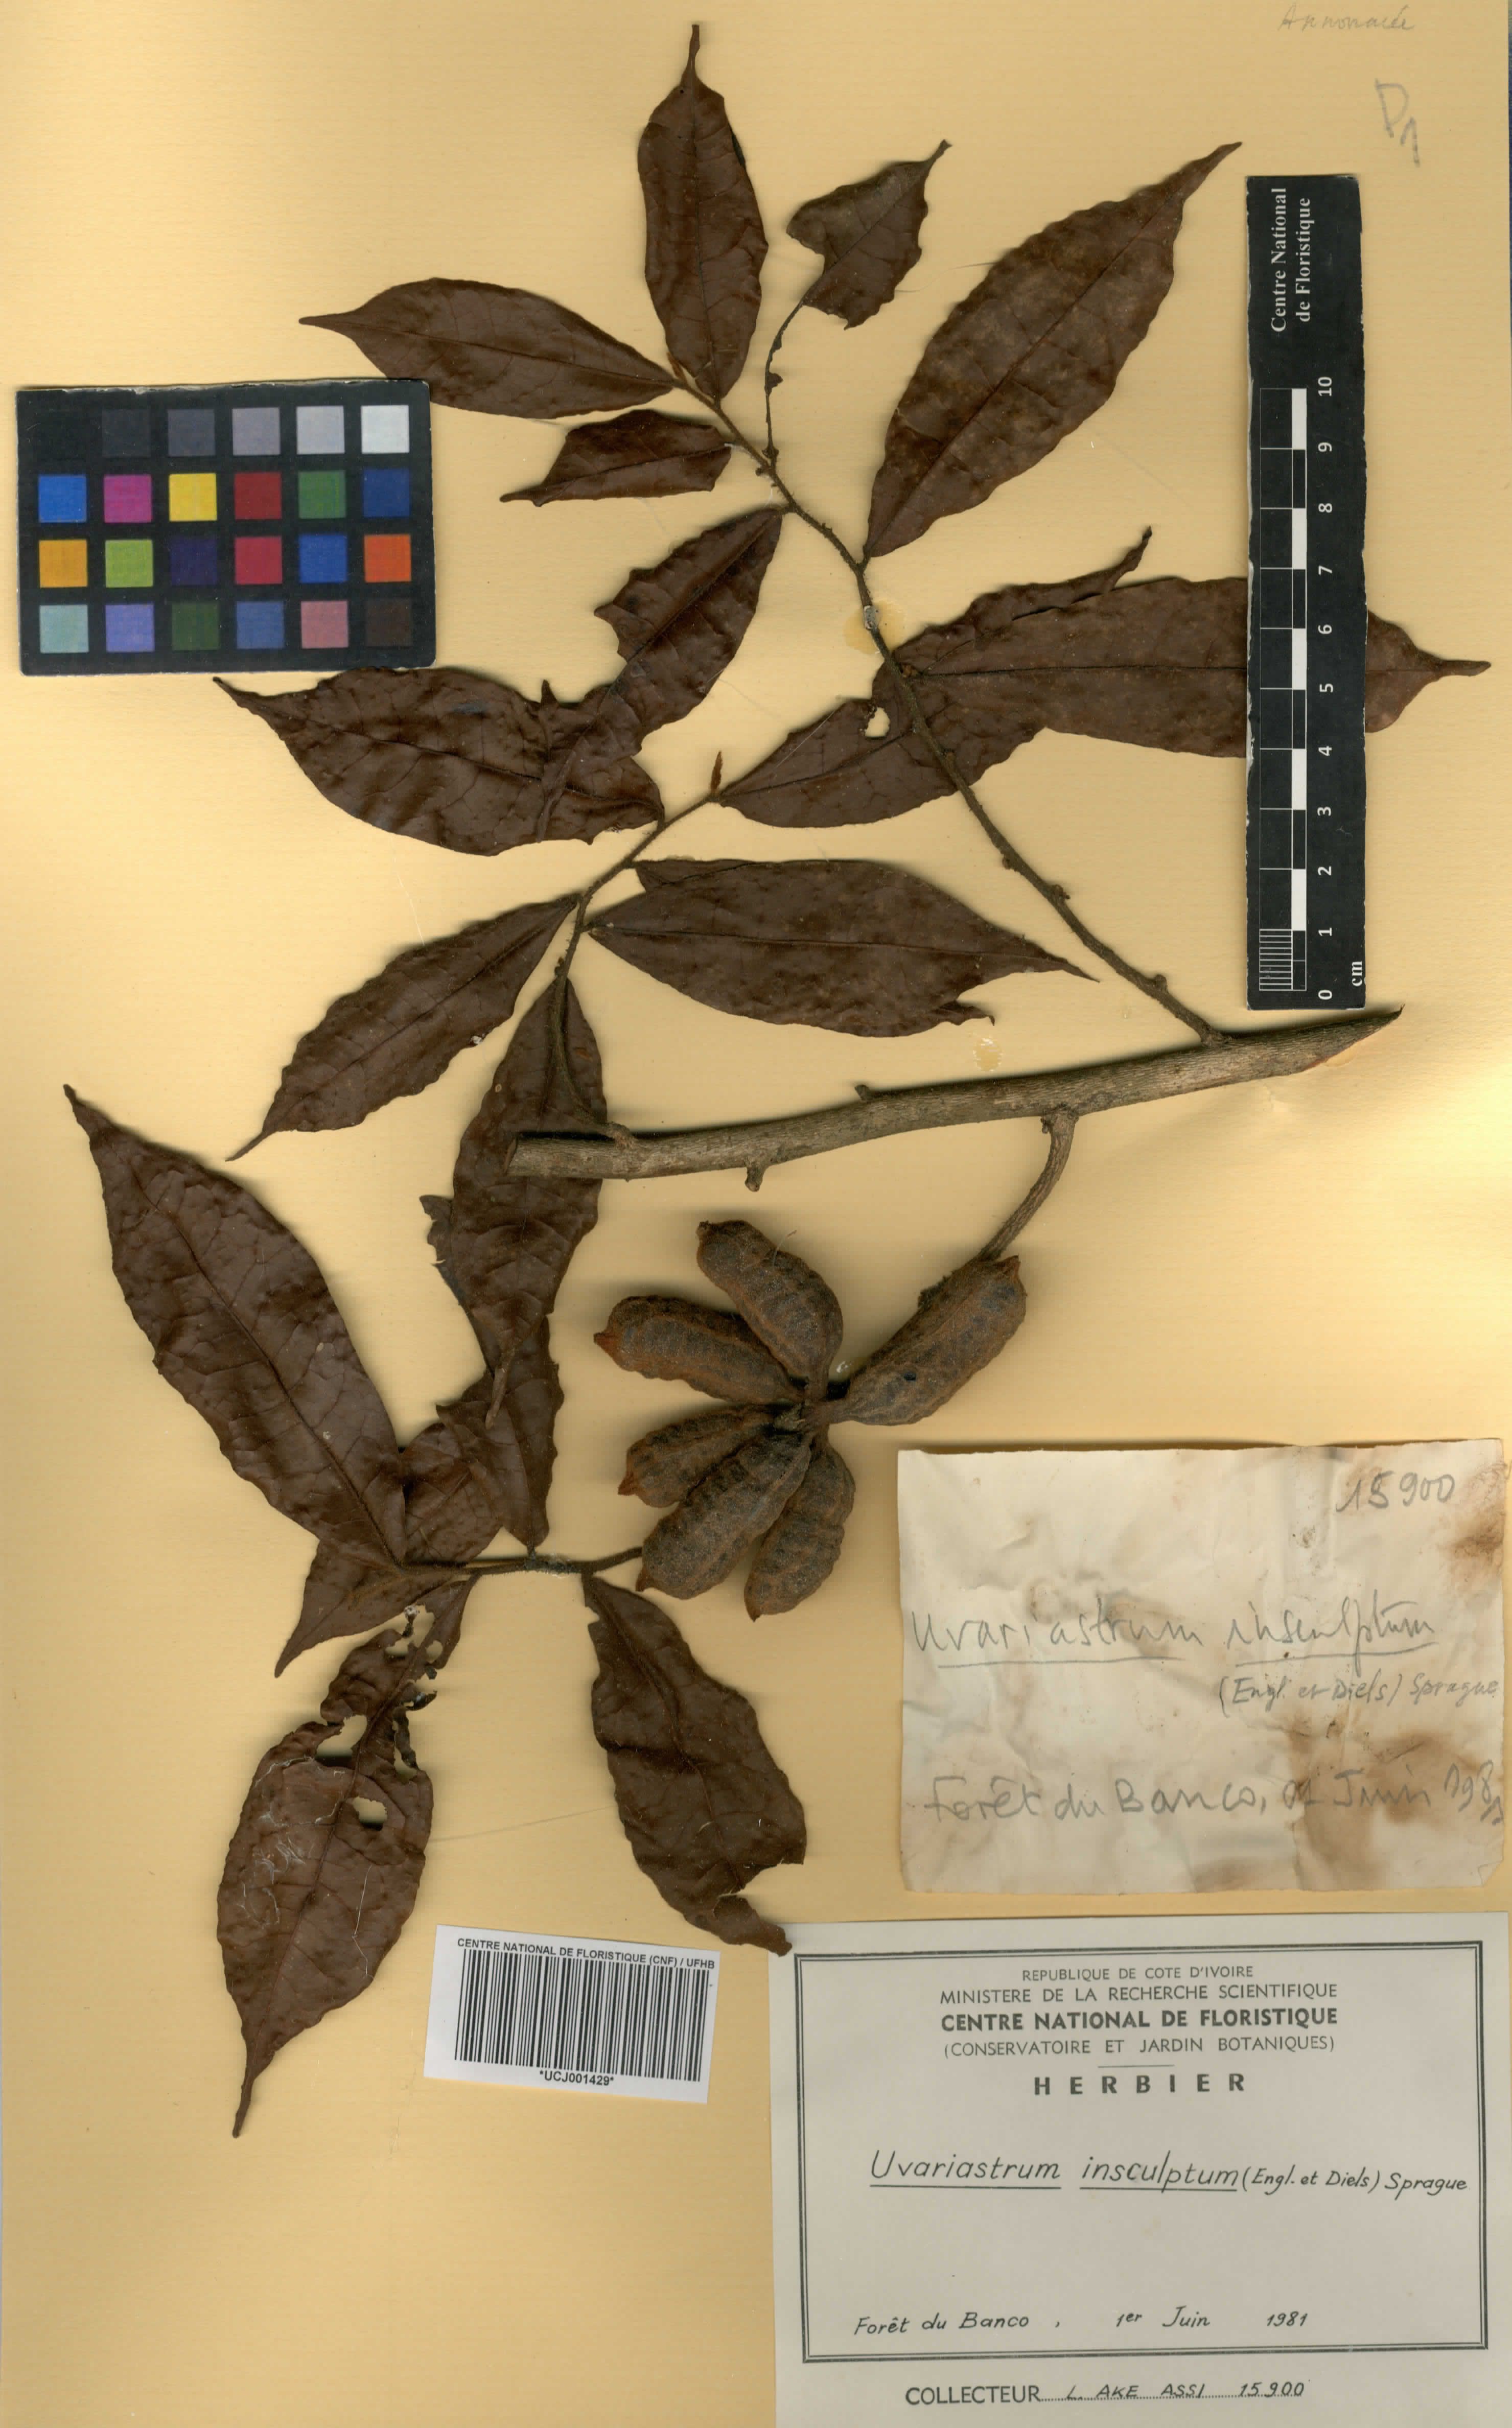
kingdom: Plantae
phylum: Tracheophyta
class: Magnoliopsida
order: Magnoliales
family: Annonaceae
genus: Uvariastrum
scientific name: Uvariastrum pierreanum
